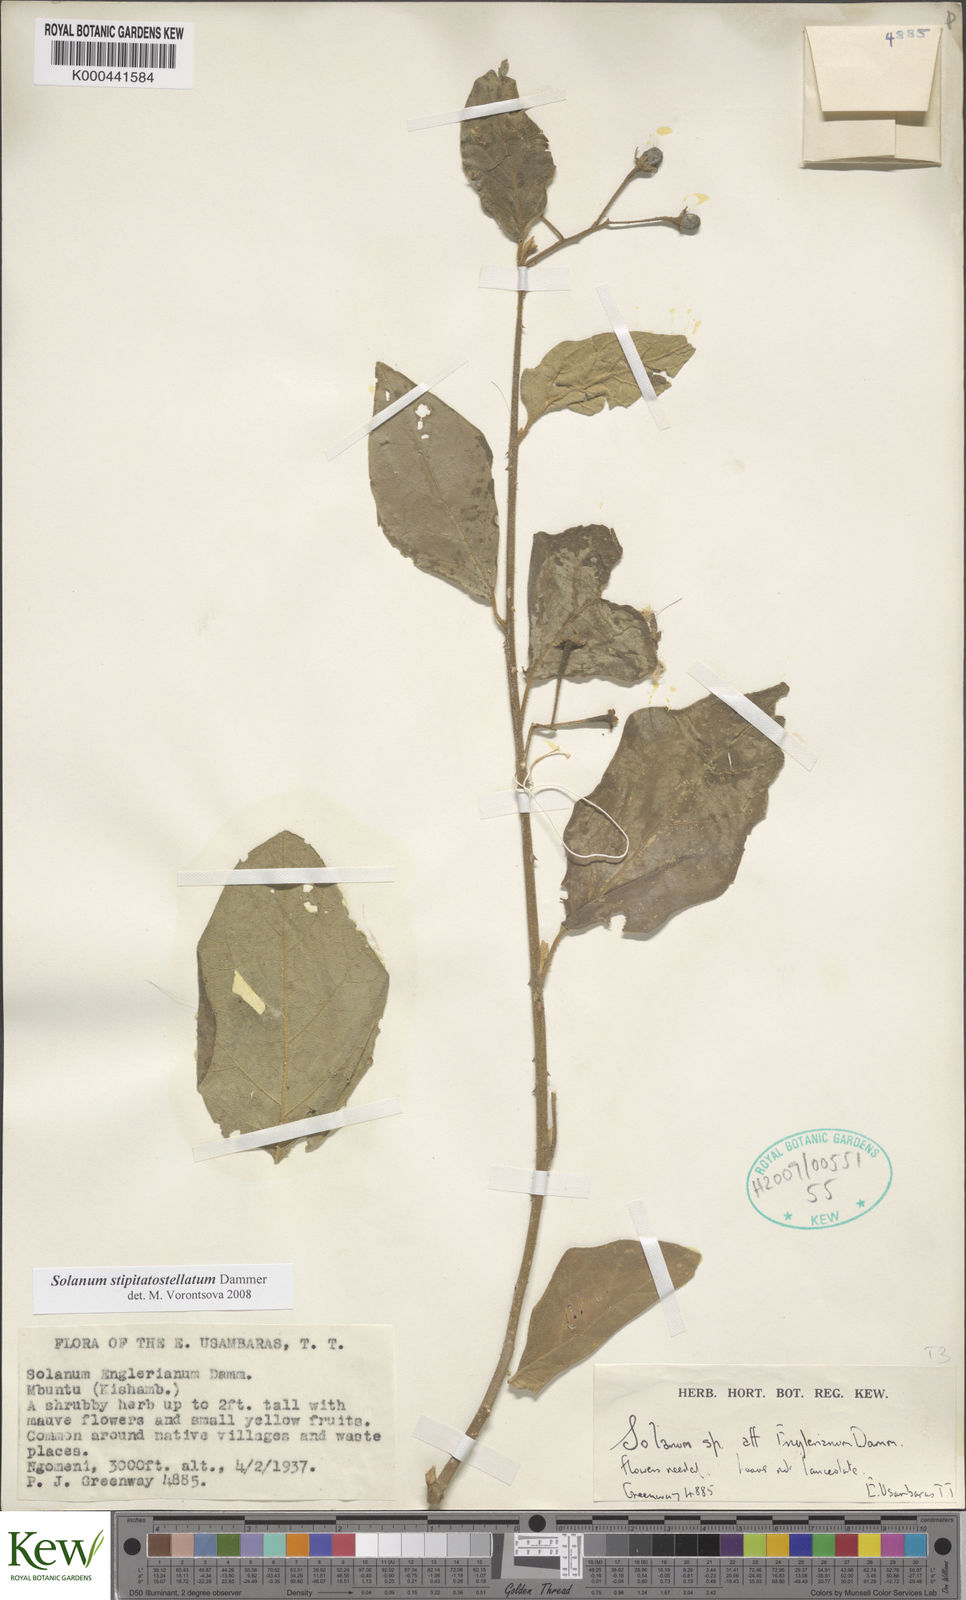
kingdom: Plantae
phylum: Tracheophyta
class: Magnoliopsida
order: Solanales
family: Solanaceae
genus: Solanum
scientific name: Solanum stipitatostellatum
